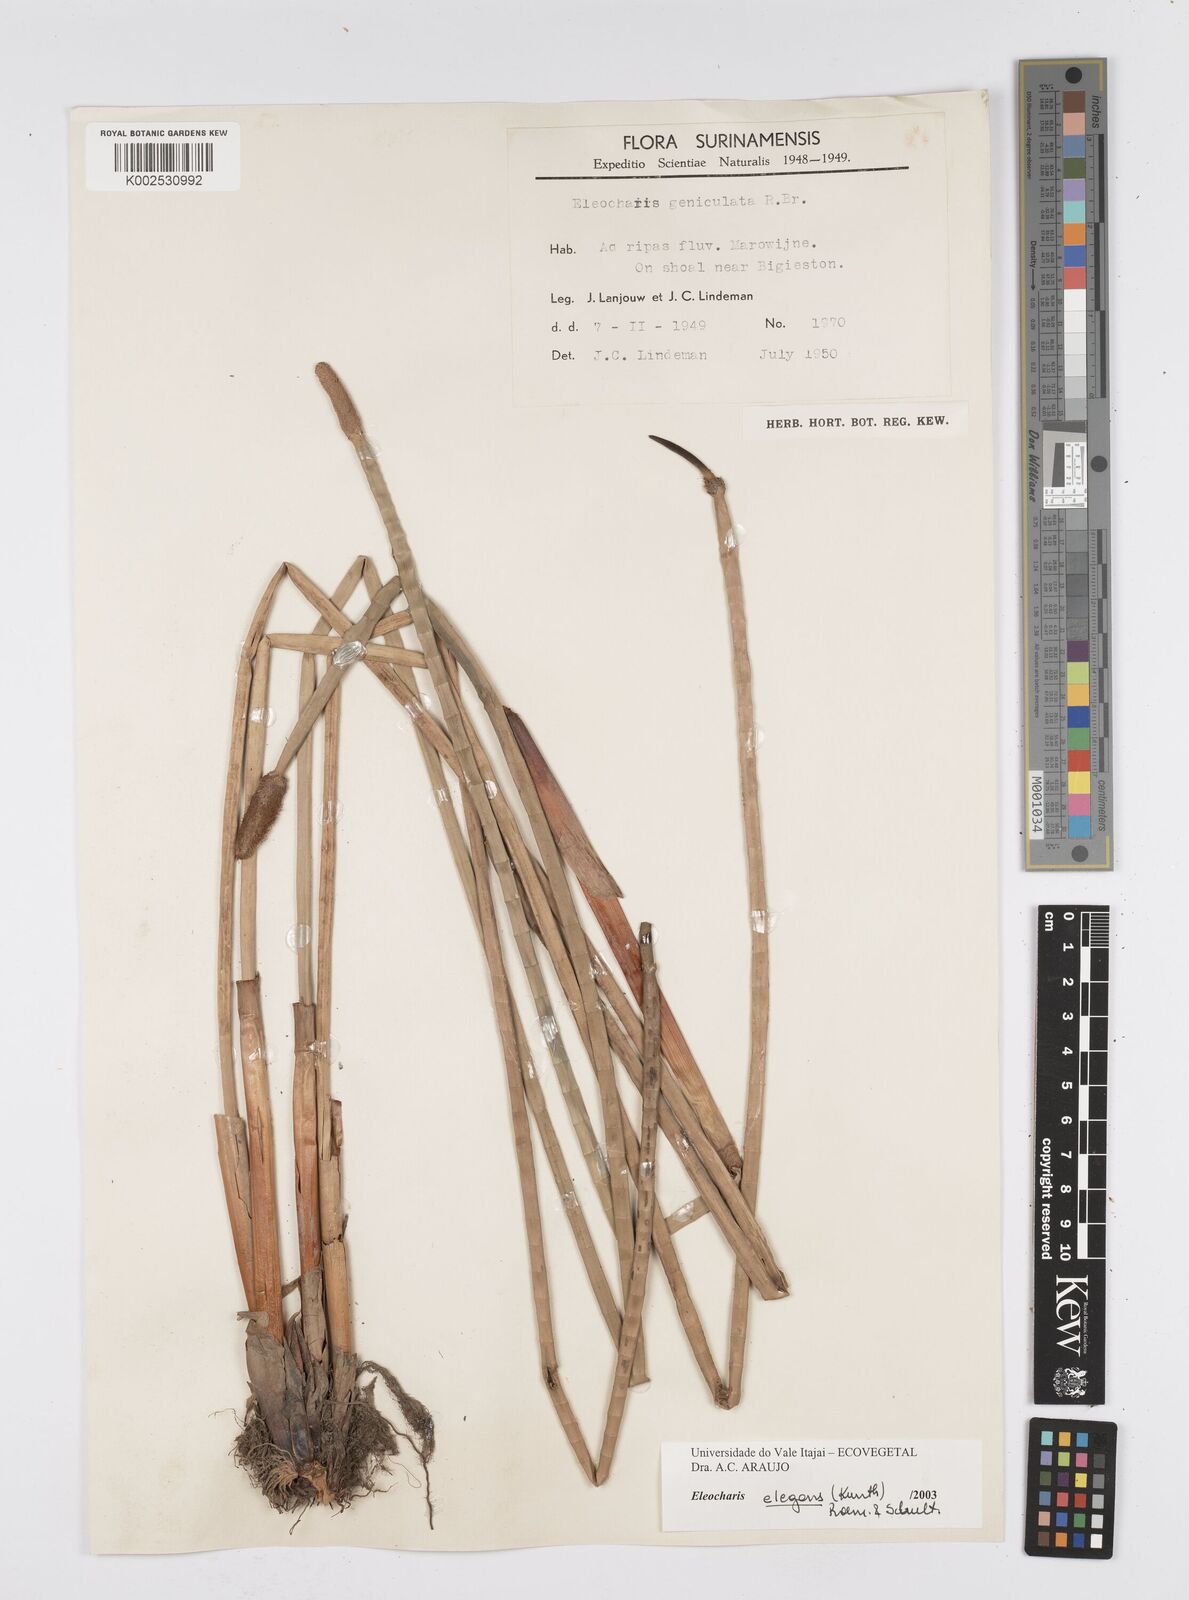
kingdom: Plantae
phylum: Tracheophyta
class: Liliopsida
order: Poales
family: Cyperaceae
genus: Eleocharis
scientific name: Eleocharis elegans
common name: Elegant spike-rush
